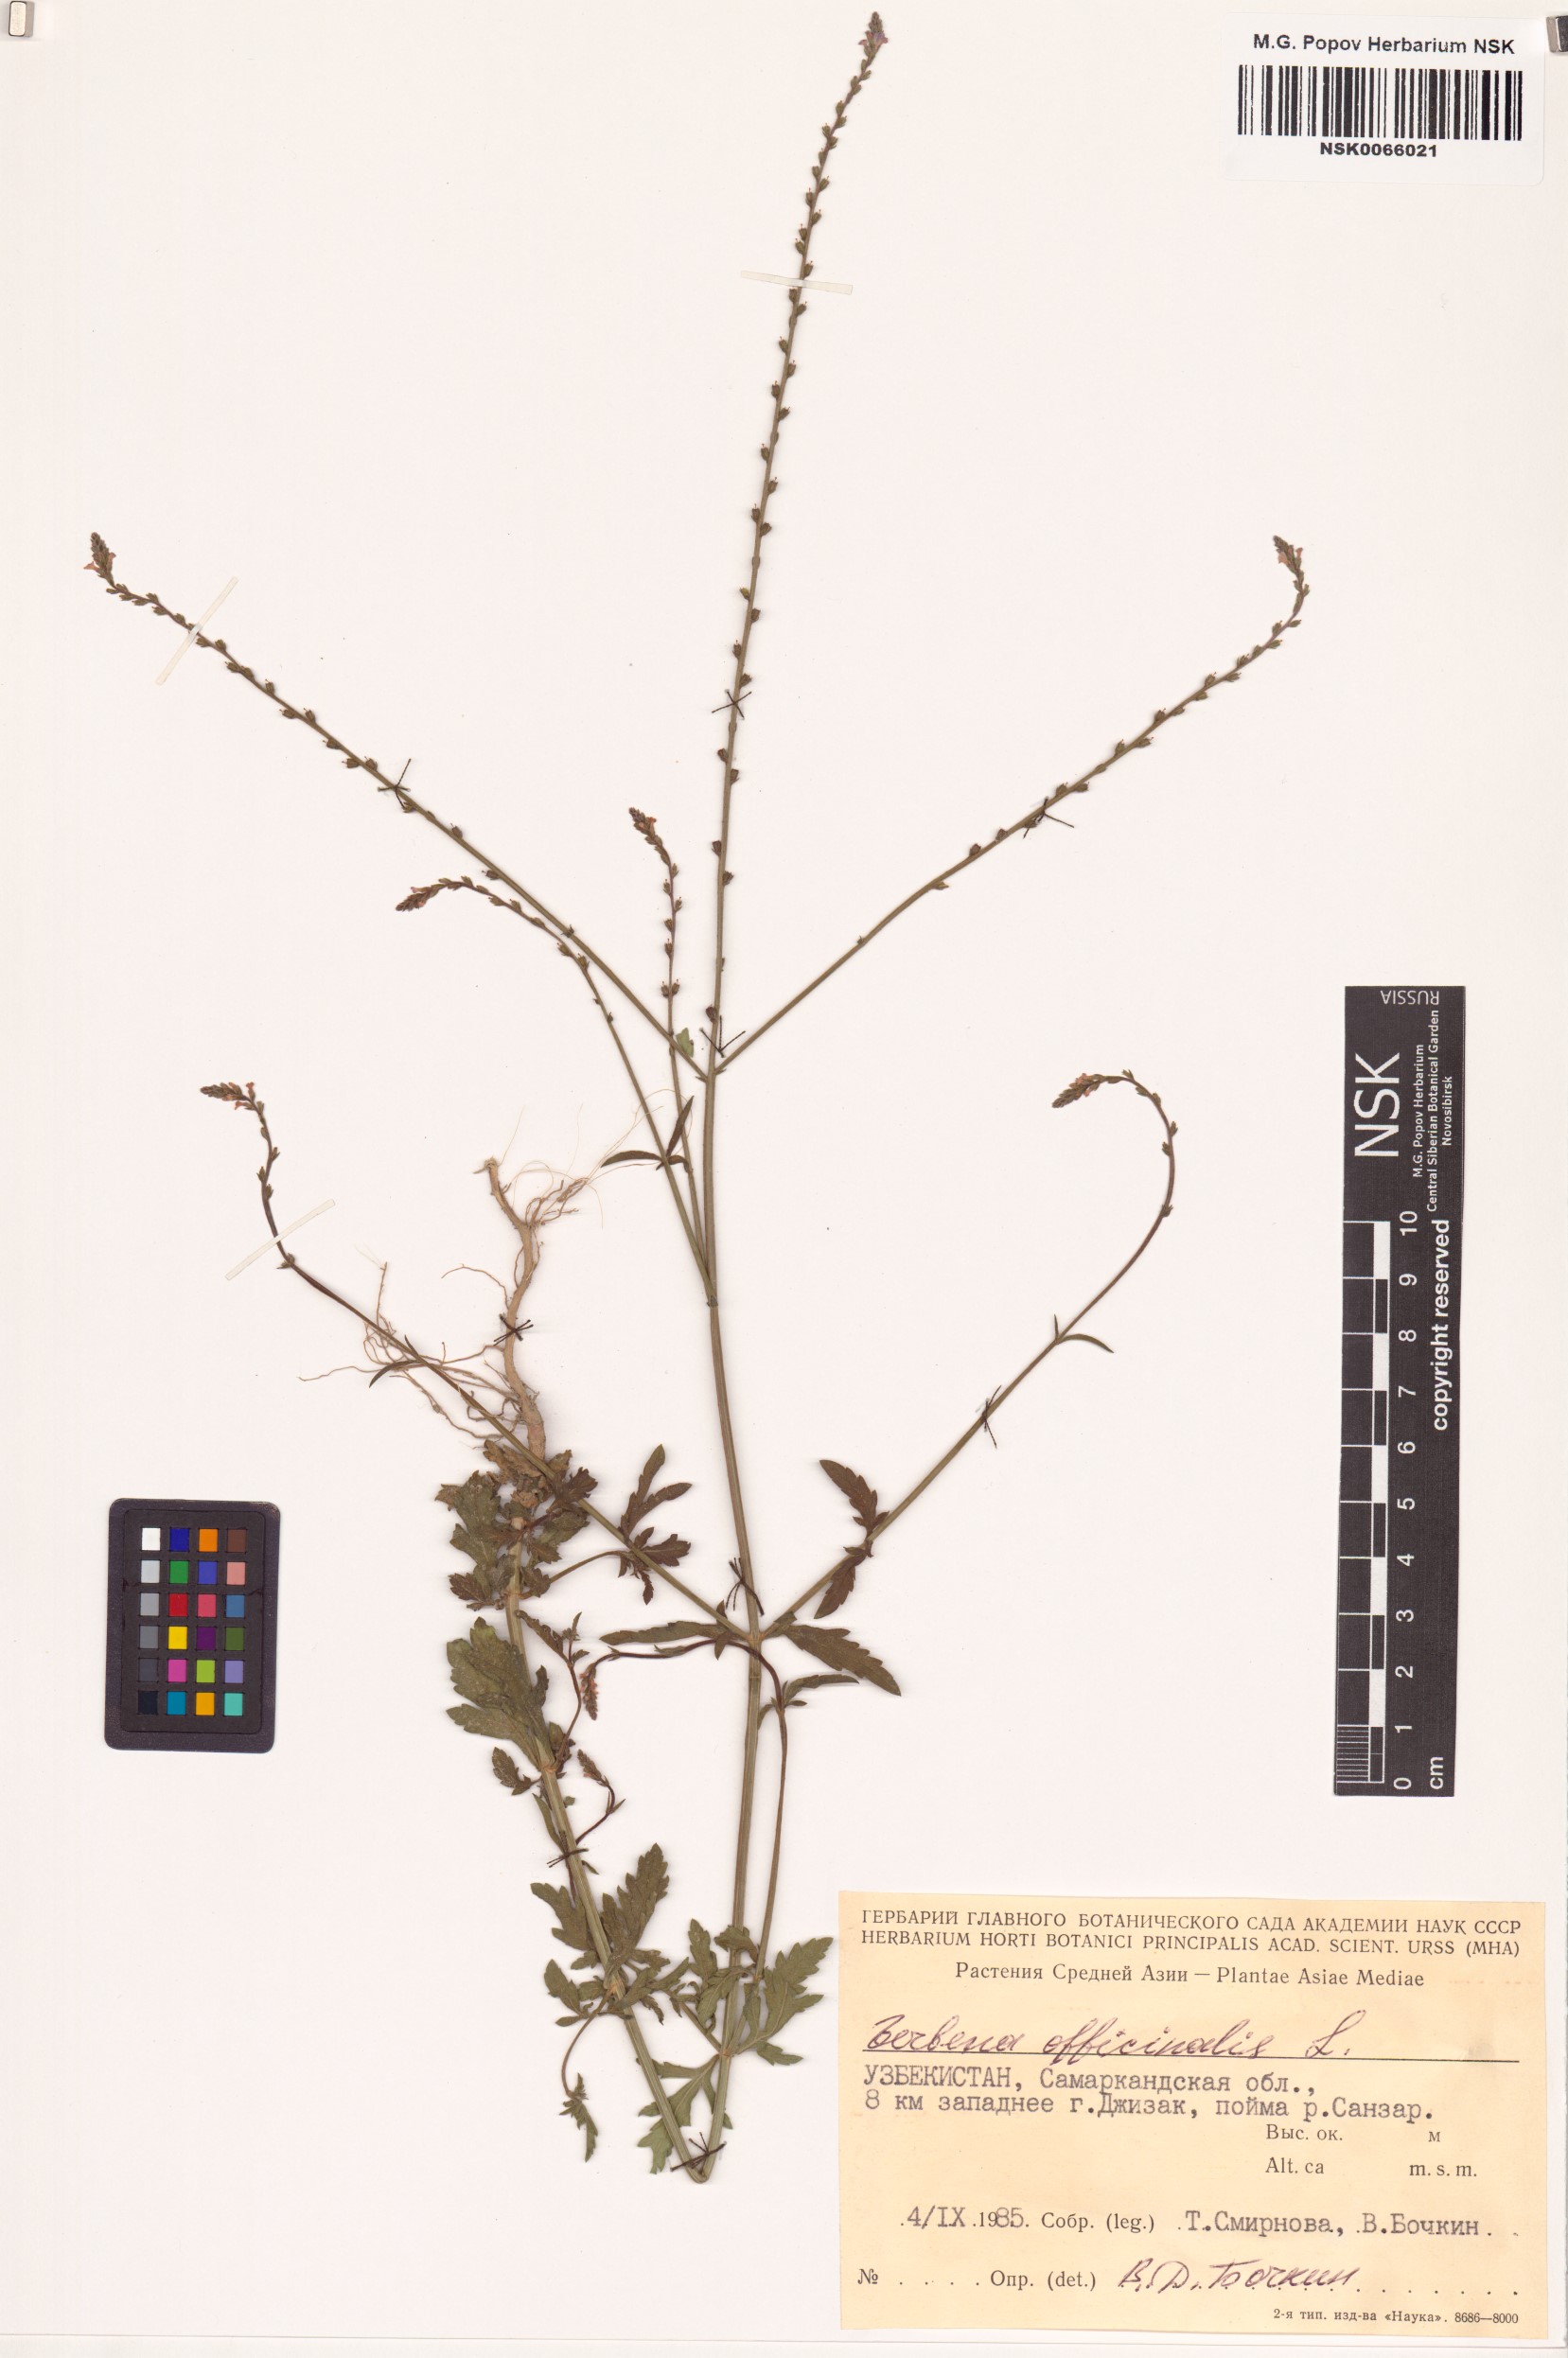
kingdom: Plantae
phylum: Tracheophyta
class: Magnoliopsida
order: Lamiales
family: Verbenaceae
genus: Verbena
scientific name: Verbena officinalis
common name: Vervain
